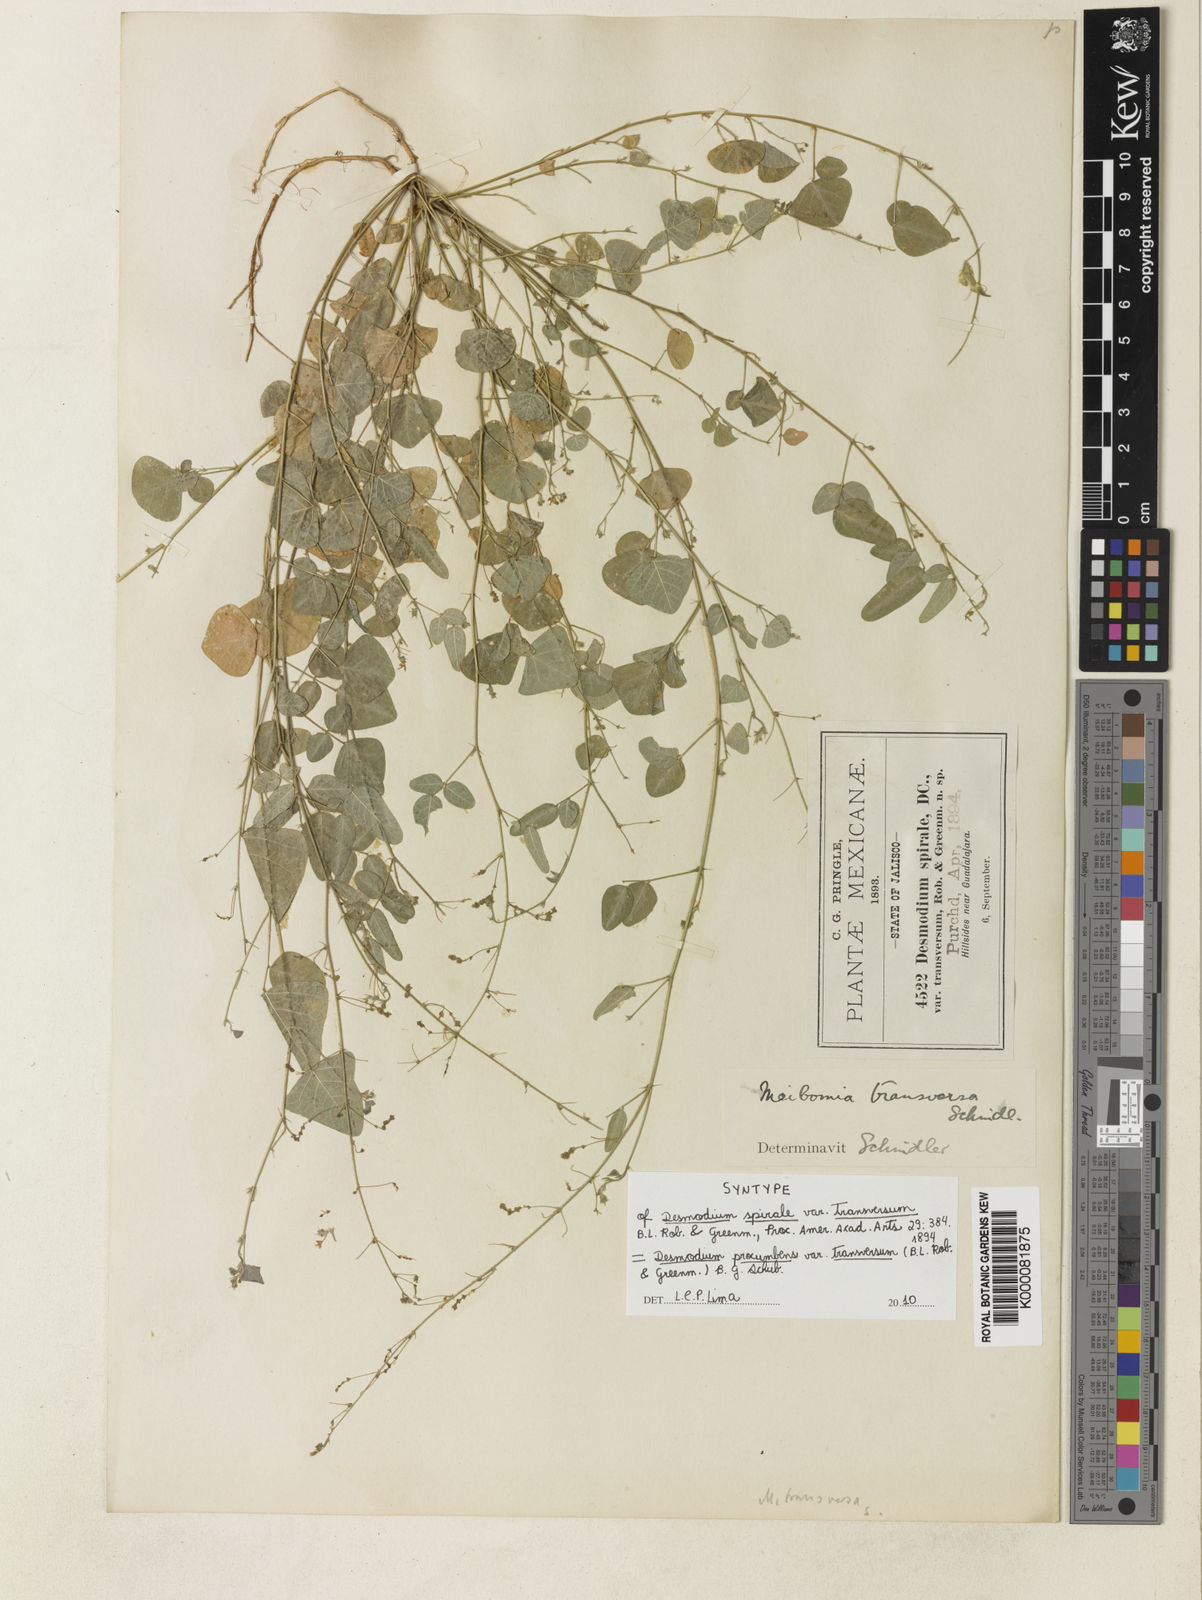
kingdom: Plantae
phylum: Tracheophyta
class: Magnoliopsida
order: Fabales
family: Fabaceae
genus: Desmodium
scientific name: Desmodium procumbens
